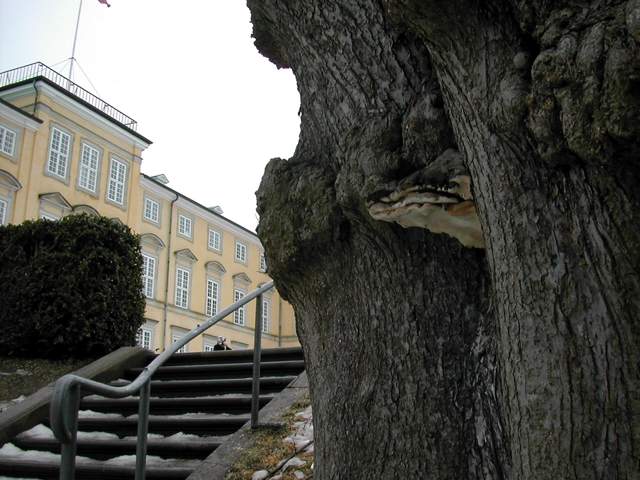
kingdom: Fungi
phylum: Basidiomycota
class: Agaricomycetes
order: Polyporales
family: Polyporaceae
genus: Ganoderma
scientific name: Ganoderma adspersum
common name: grov lakporesvamp
